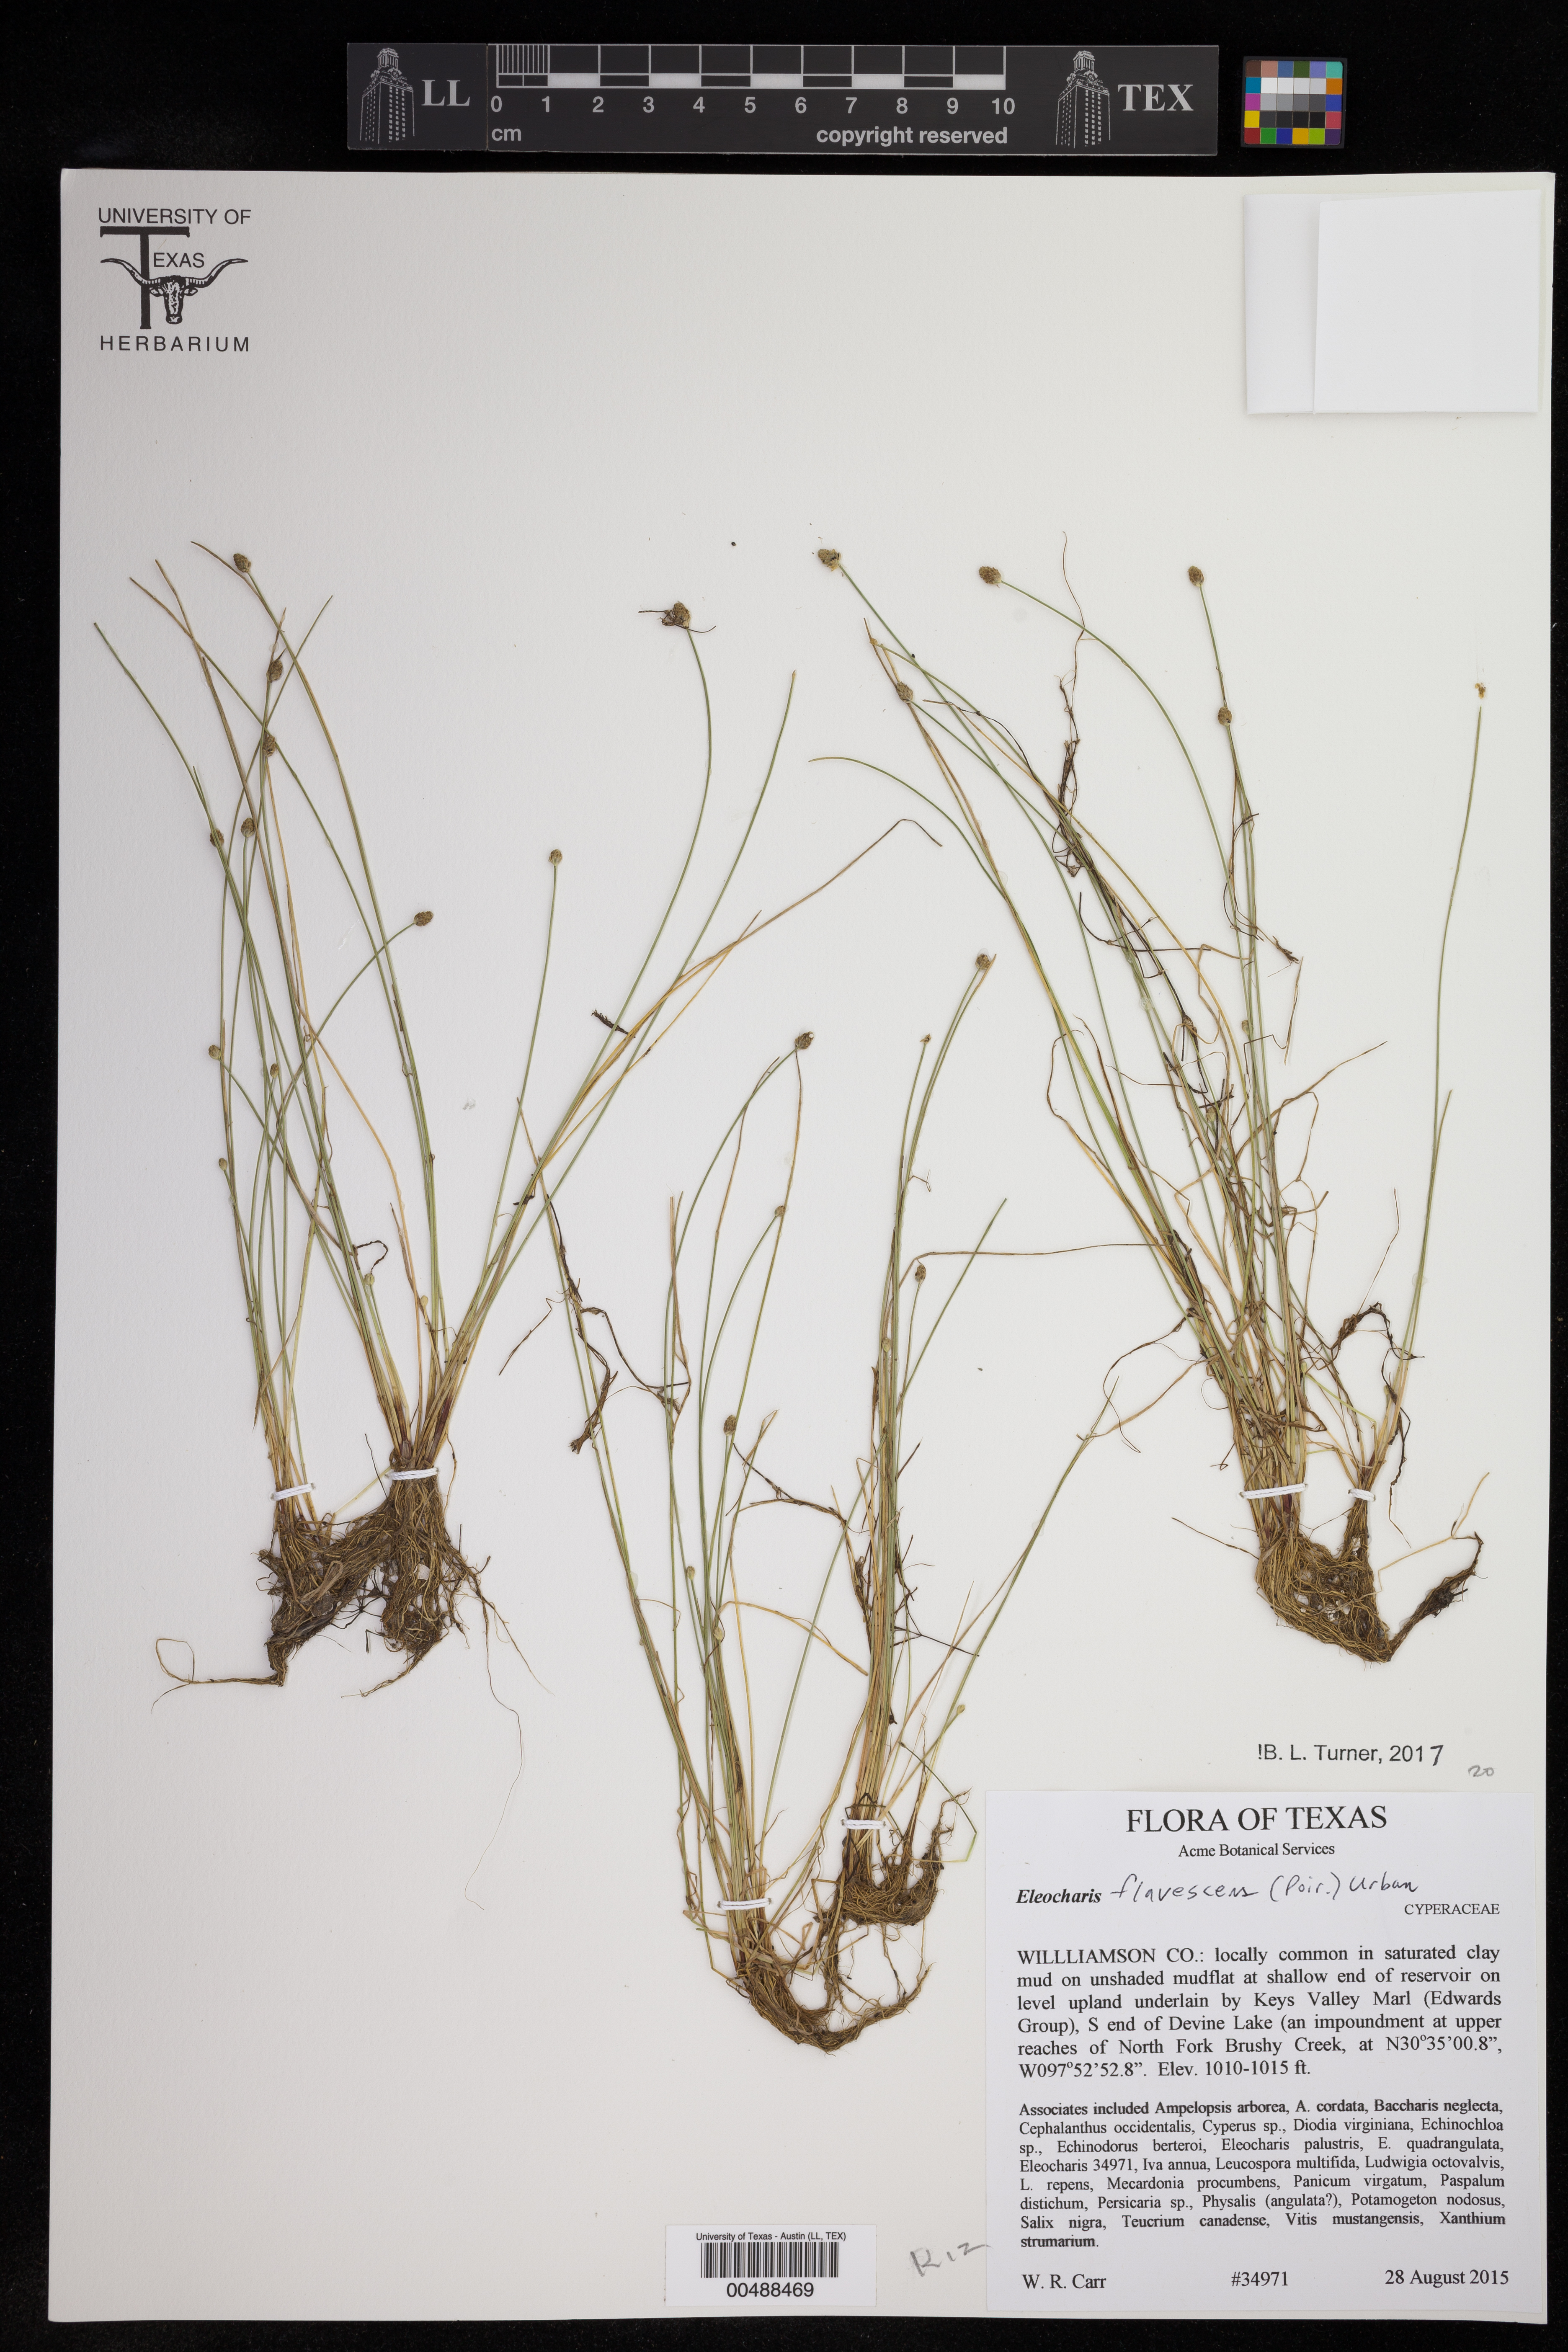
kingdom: Plantae
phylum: Tracheophyta
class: Liliopsida
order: Poales
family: Cyperaceae
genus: Eleocharis
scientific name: Eleocharis flavescens
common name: Yellow spikerush
